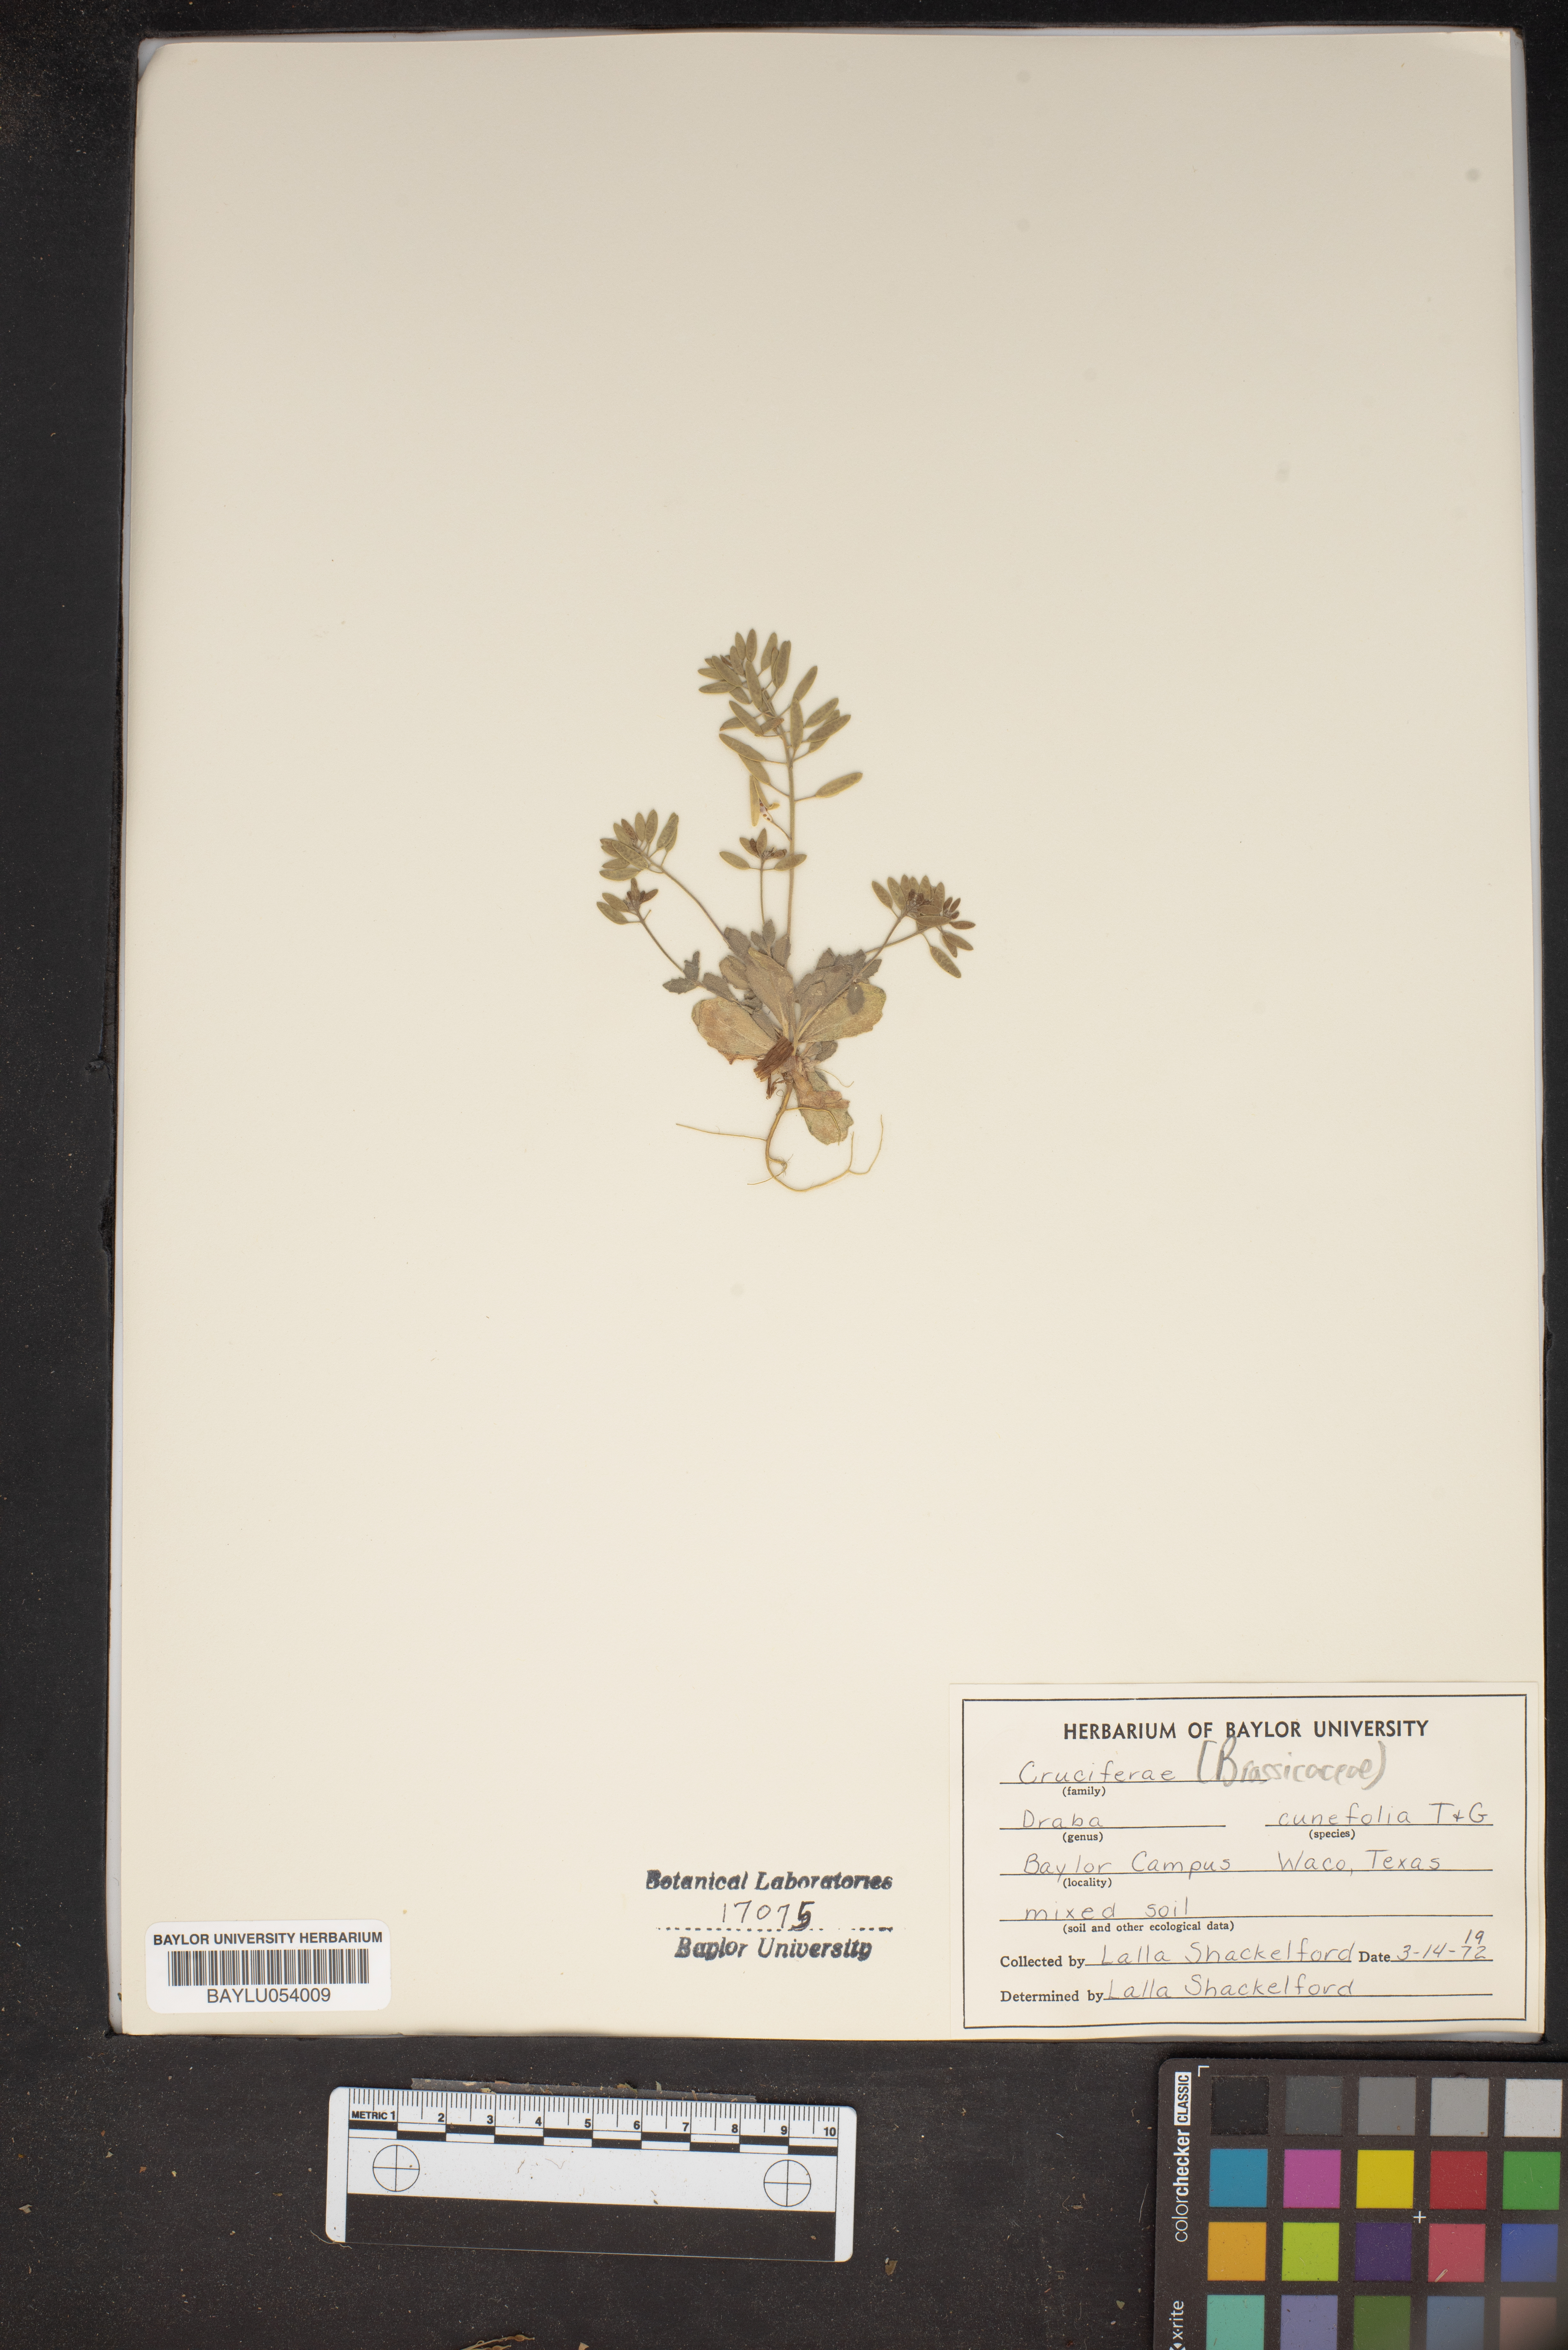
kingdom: Plantae
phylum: Tracheophyta
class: Magnoliopsida
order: Brassicales
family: Brassicaceae
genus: Tomostima
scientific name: Tomostima cuneifolia
